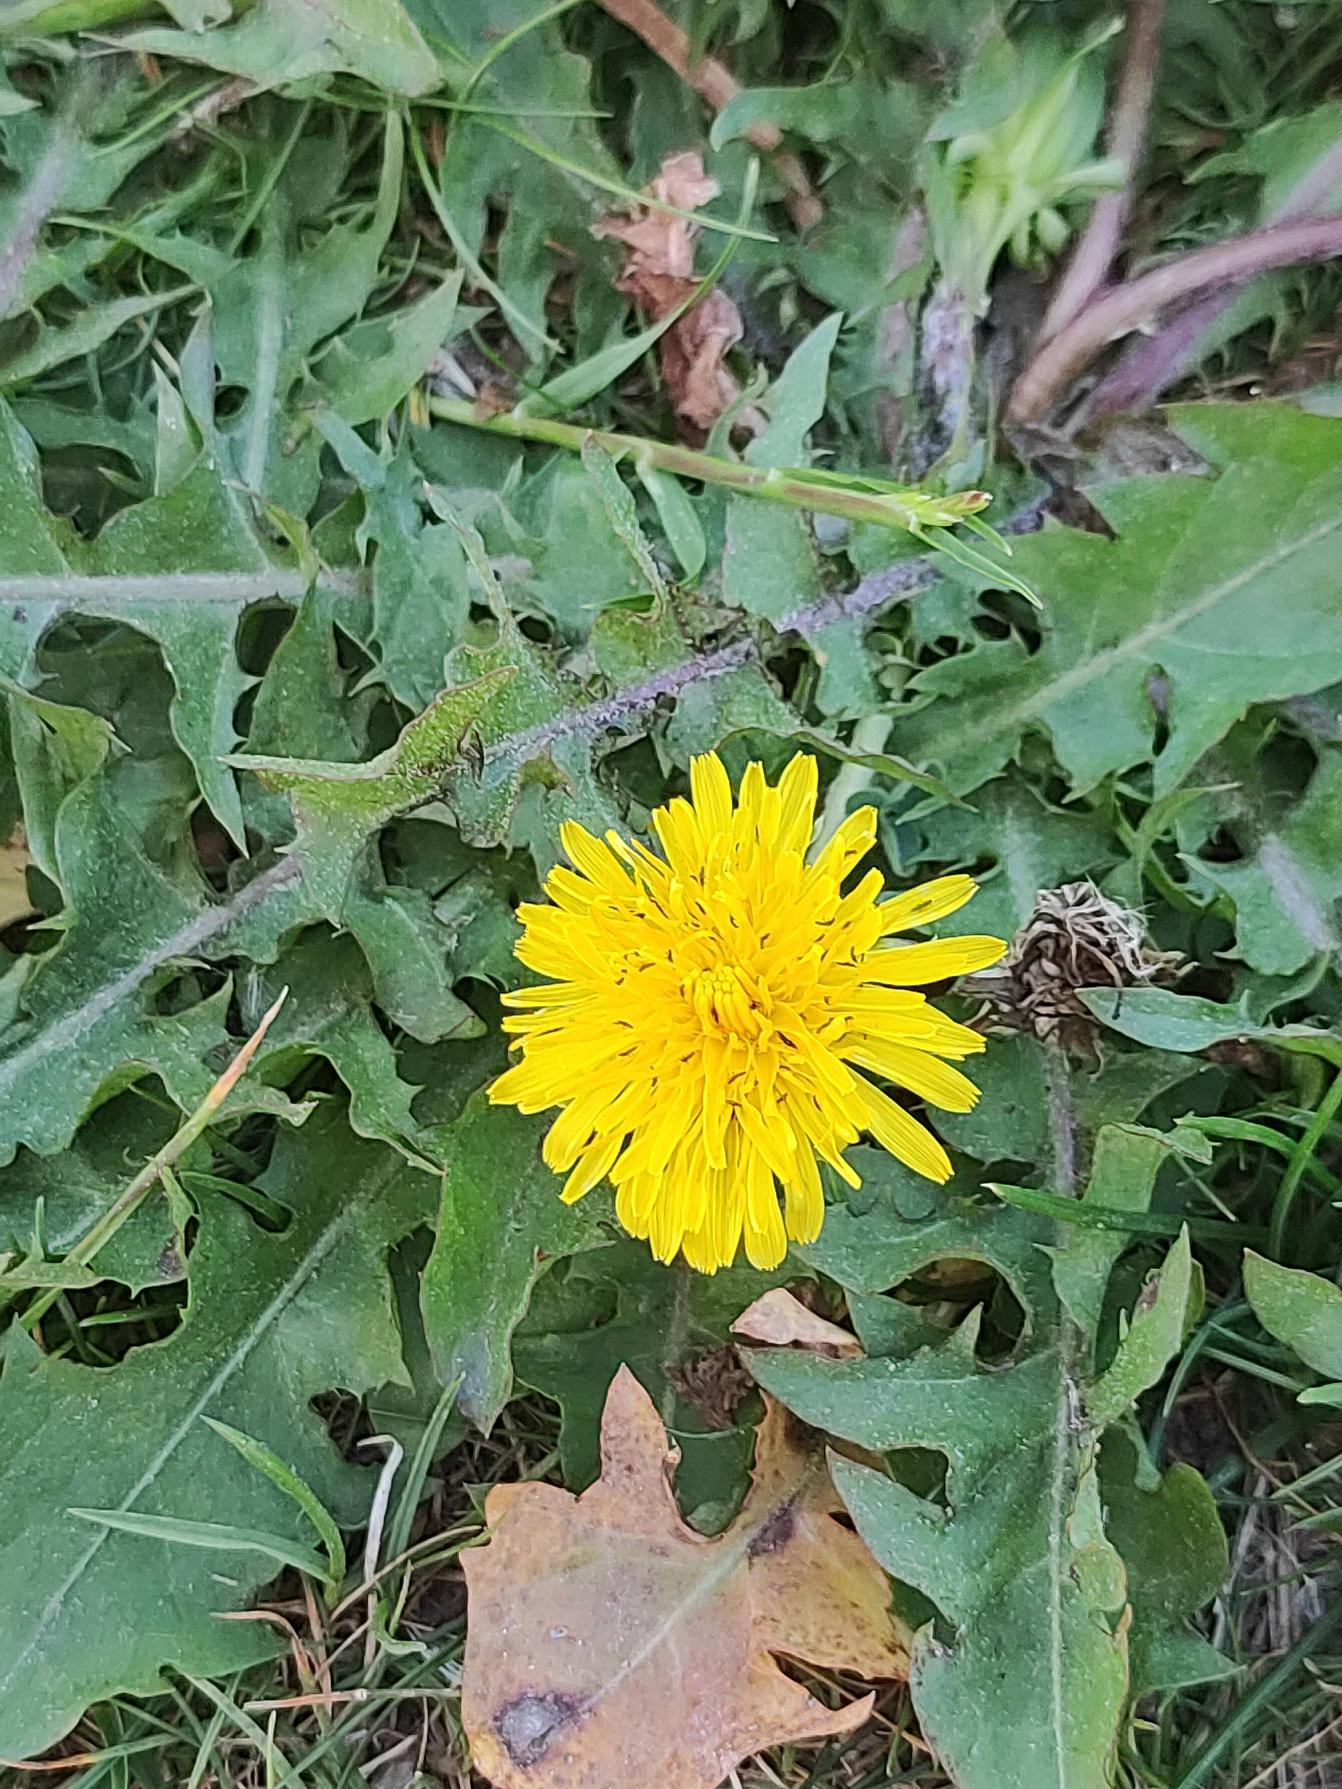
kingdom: Plantae
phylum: Tracheophyta
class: Magnoliopsida
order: Asterales
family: Asteraceae
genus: Taraxacum
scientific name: Taraxacum
